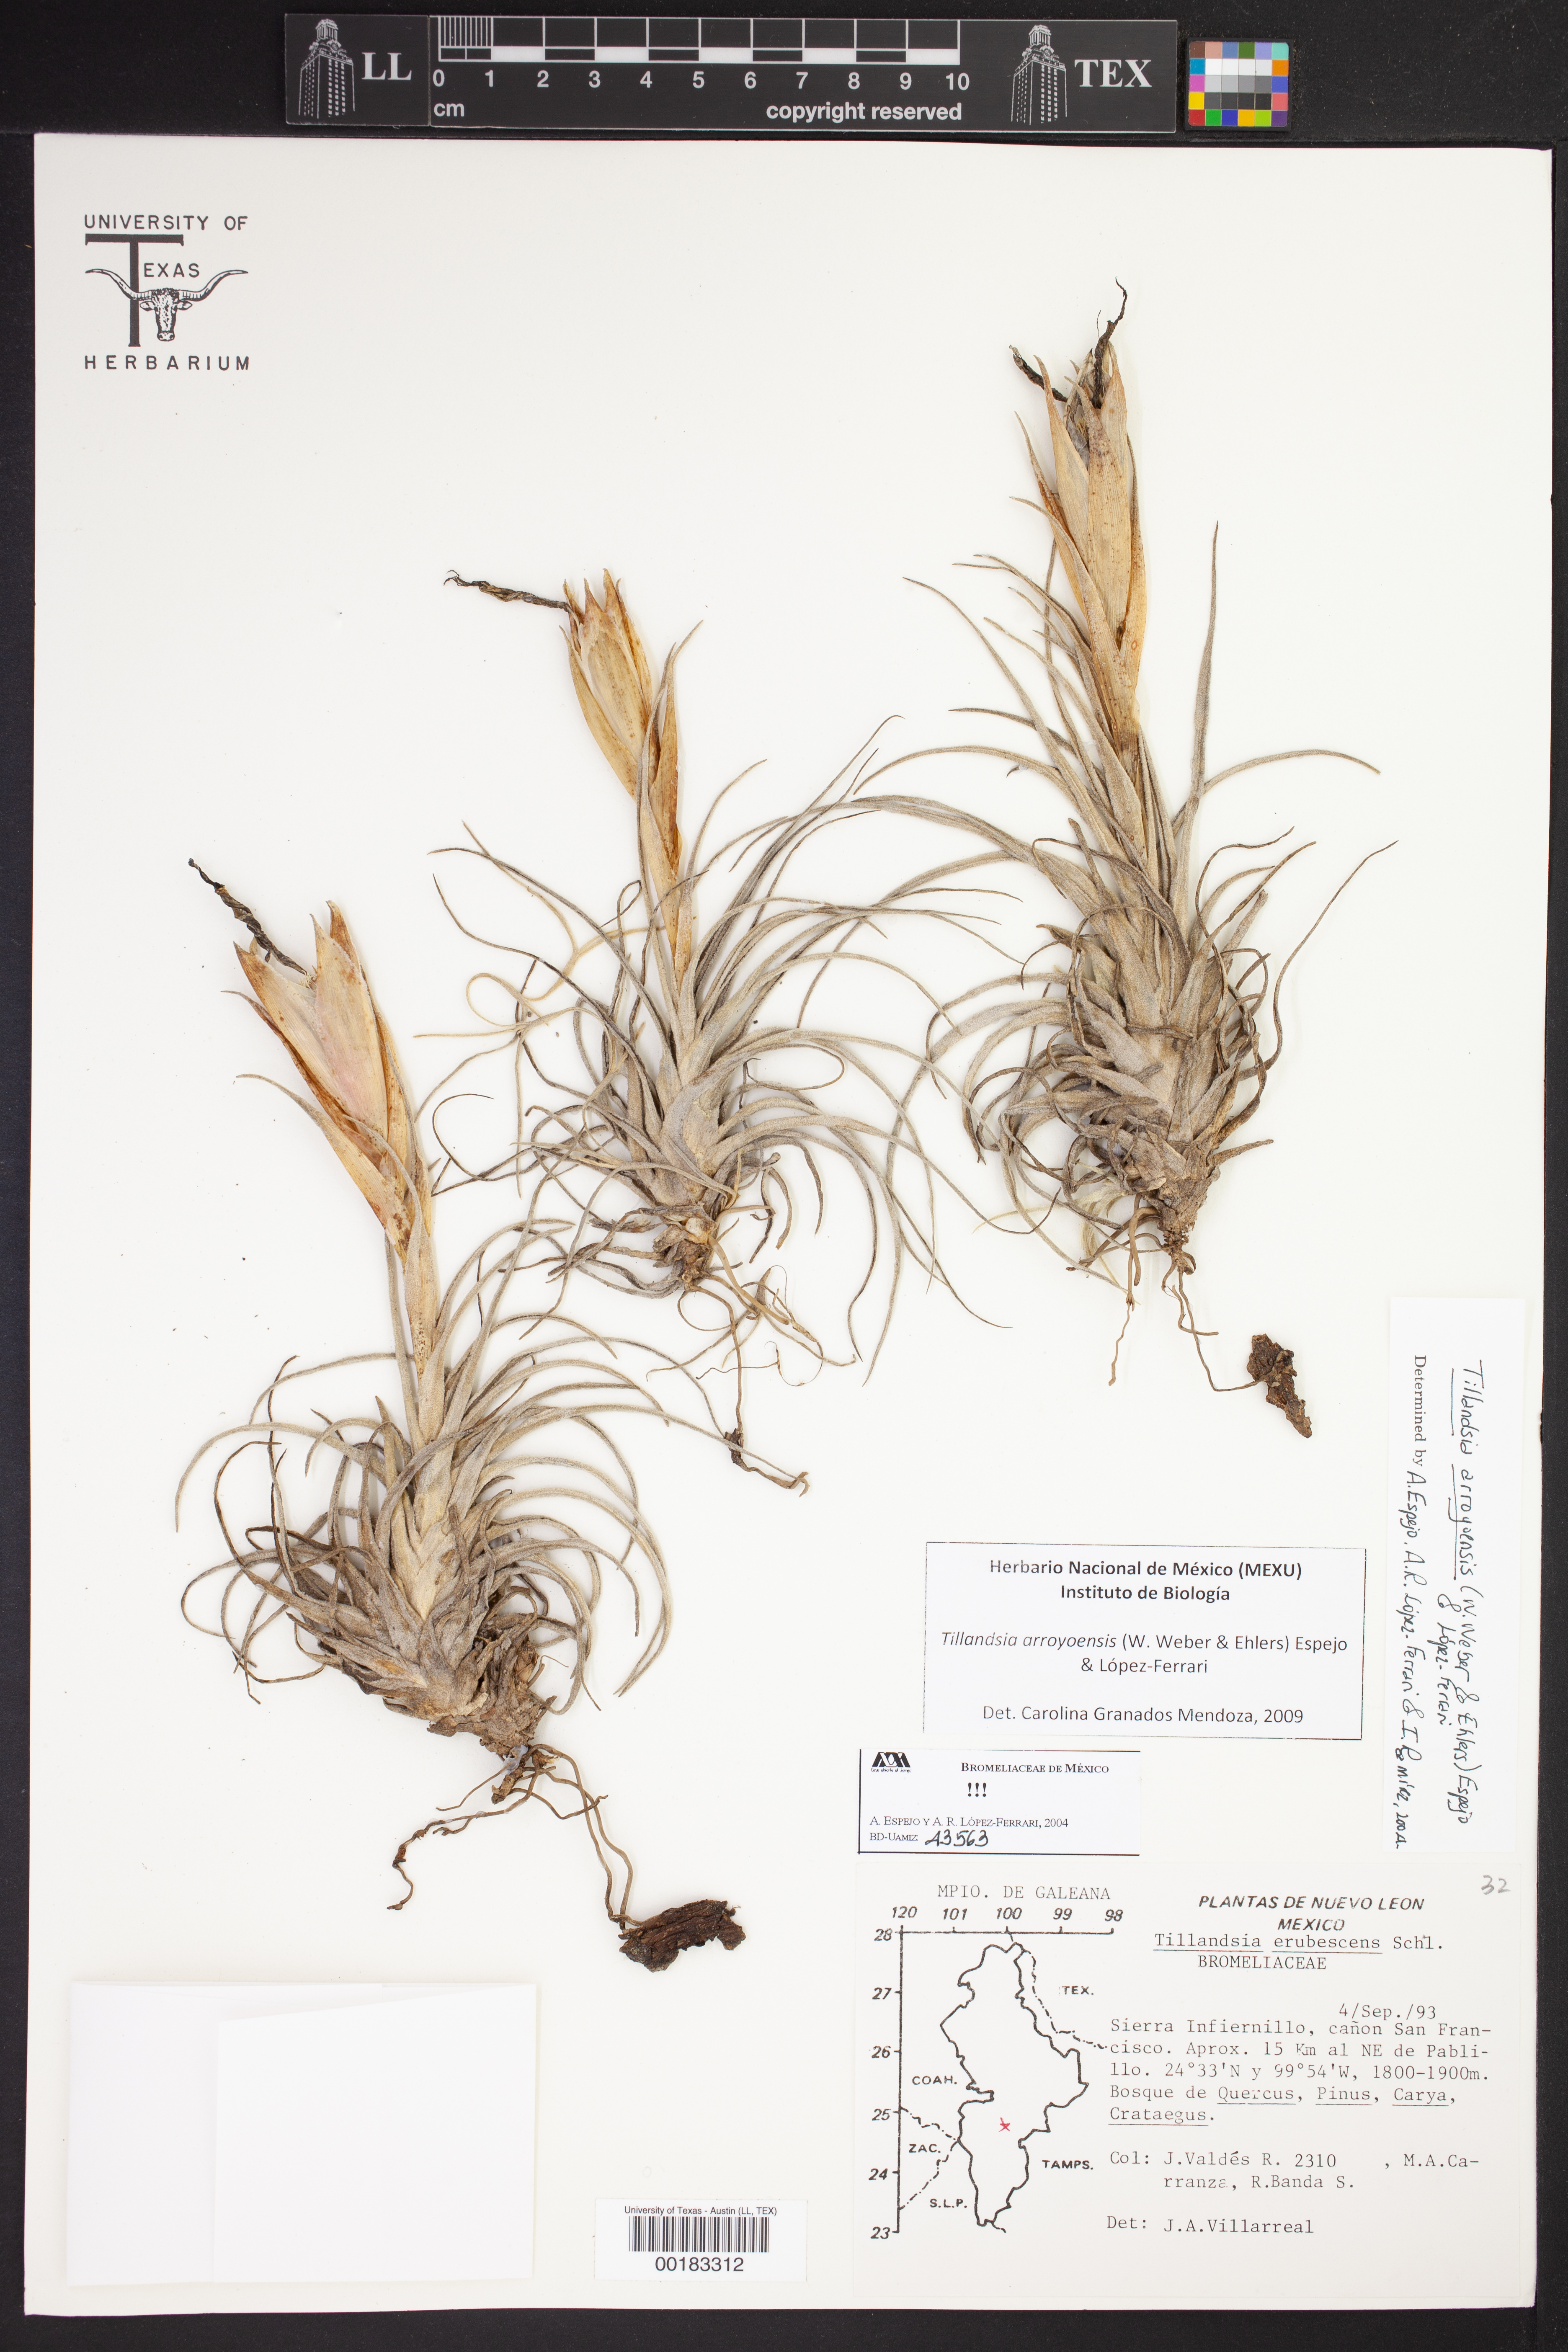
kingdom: Plantae
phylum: Tracheophyta
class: Liliopsida
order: Poales
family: Bromeliaceae
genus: Tillandsia
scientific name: Tillandsia erubescens
